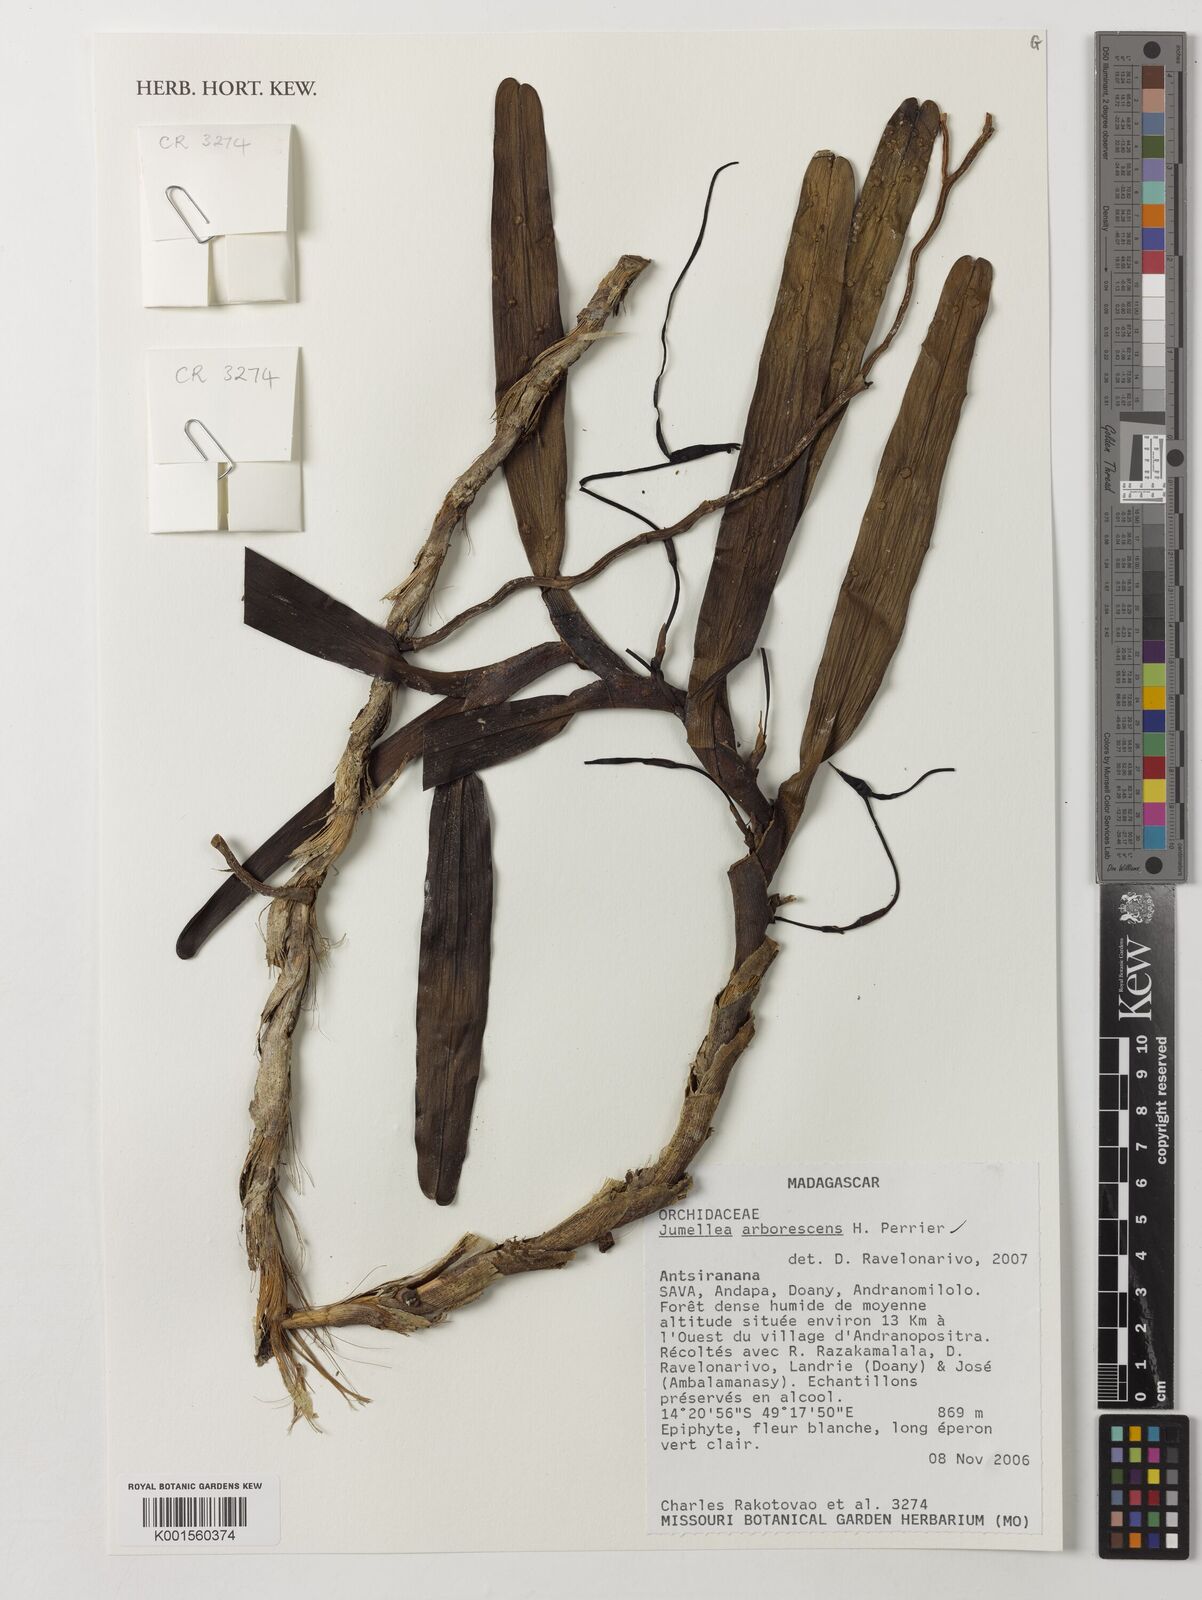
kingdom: Plantae
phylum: Tracheophyta
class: Liliopsida
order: Asparagales
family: Orchidaceae
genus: Jumellea
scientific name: Jumellea arborescens
